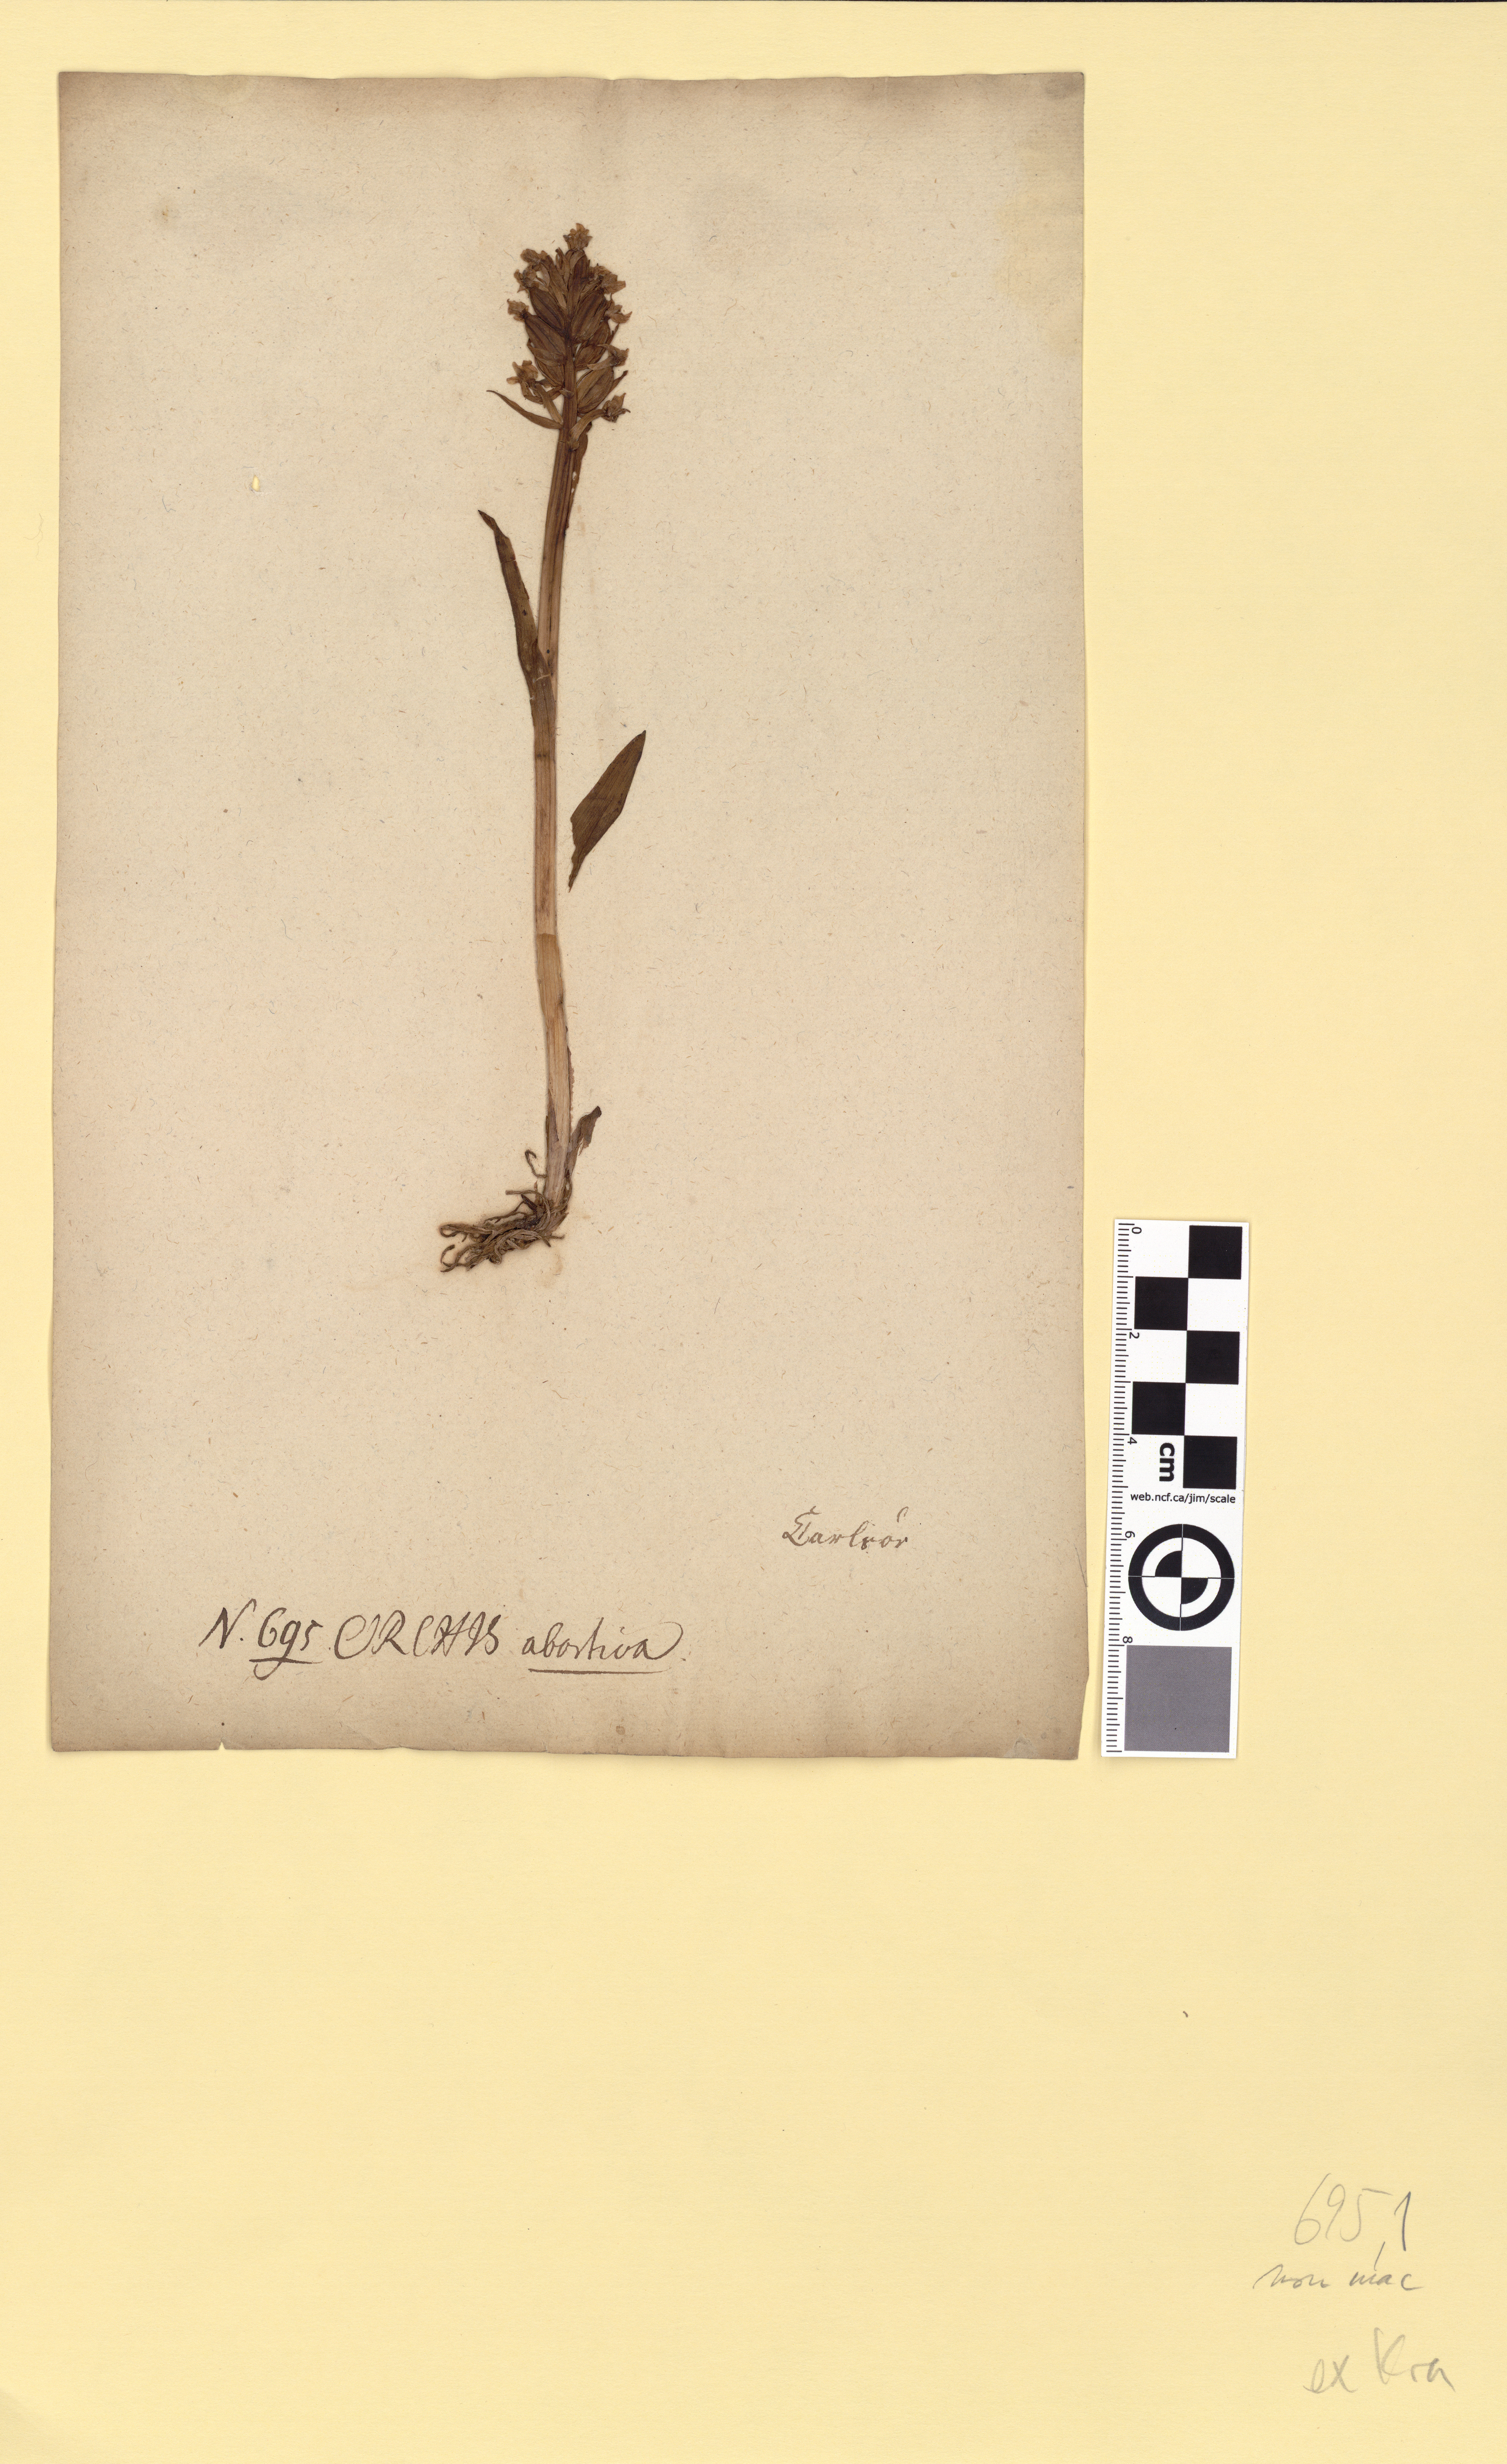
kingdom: Plantae
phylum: Tracheophyta
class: Liliopsida
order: Asparagales
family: Orchidaceae
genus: Dactylorhiza
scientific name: Dactylorhiza incarnata
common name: Early marsh-orchid
